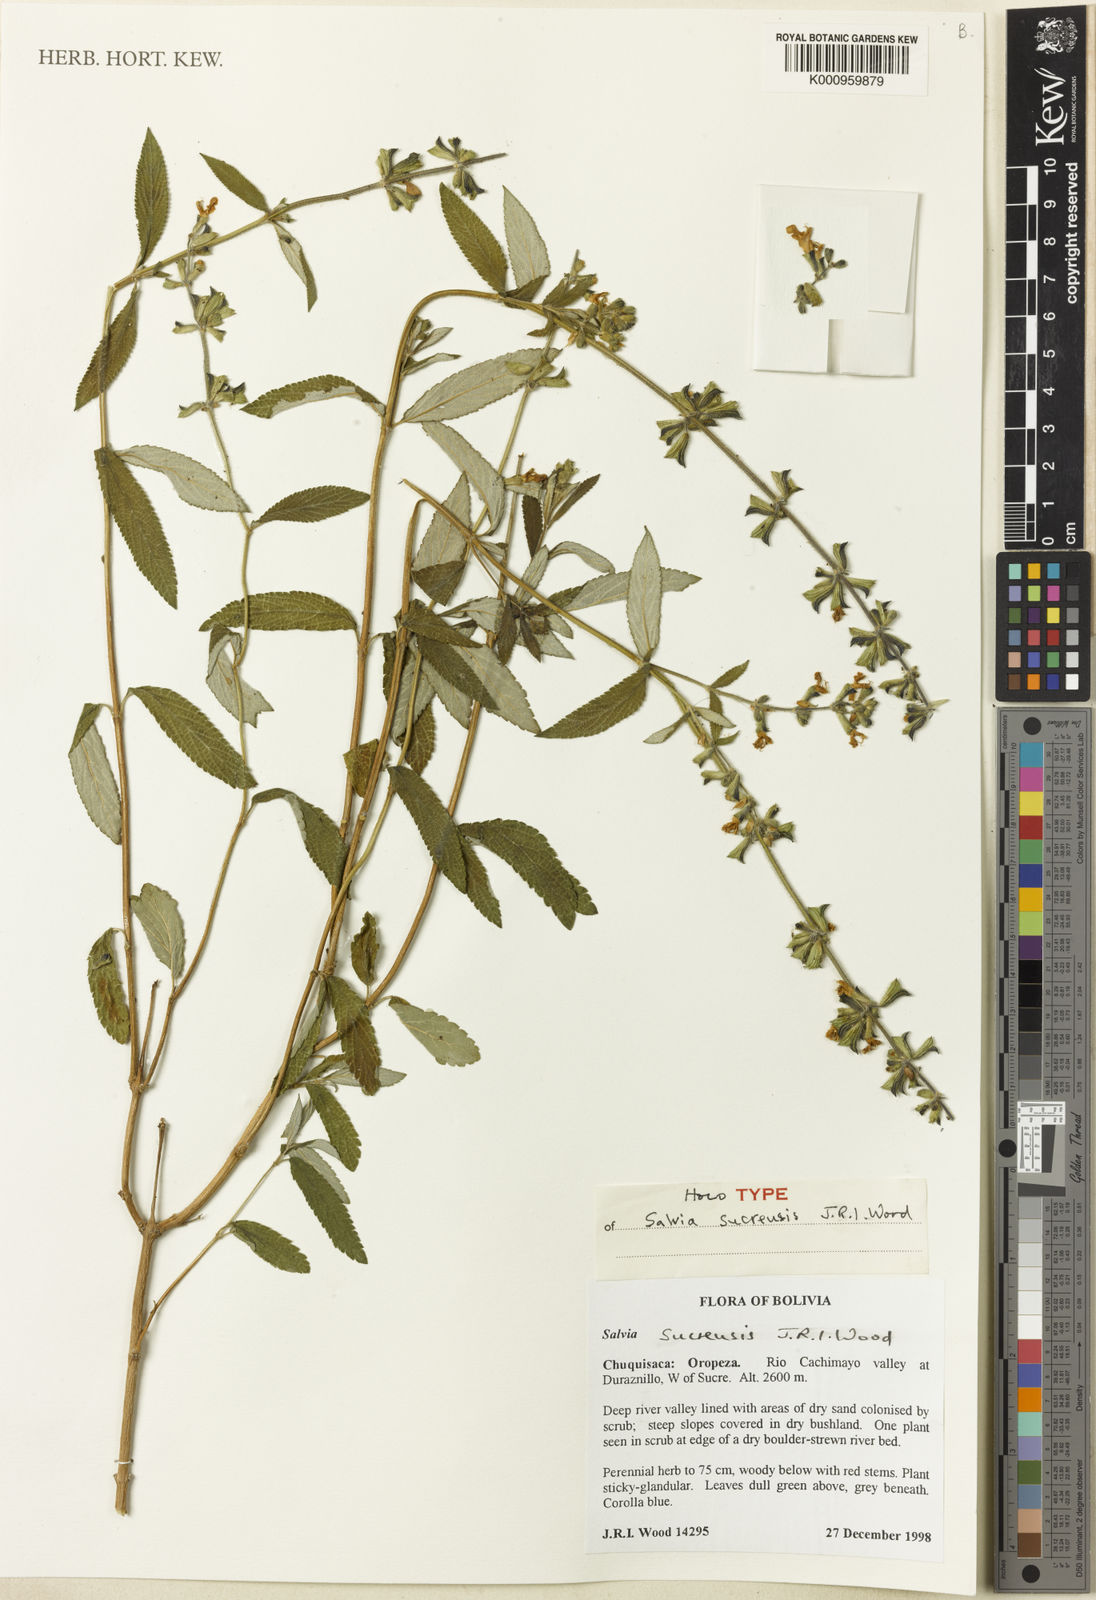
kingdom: Plantae
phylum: Tracheophyta
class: Magnoliopsida
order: Lamiales
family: Lamiaceae
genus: Salvia
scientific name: Salvia sucrensis
